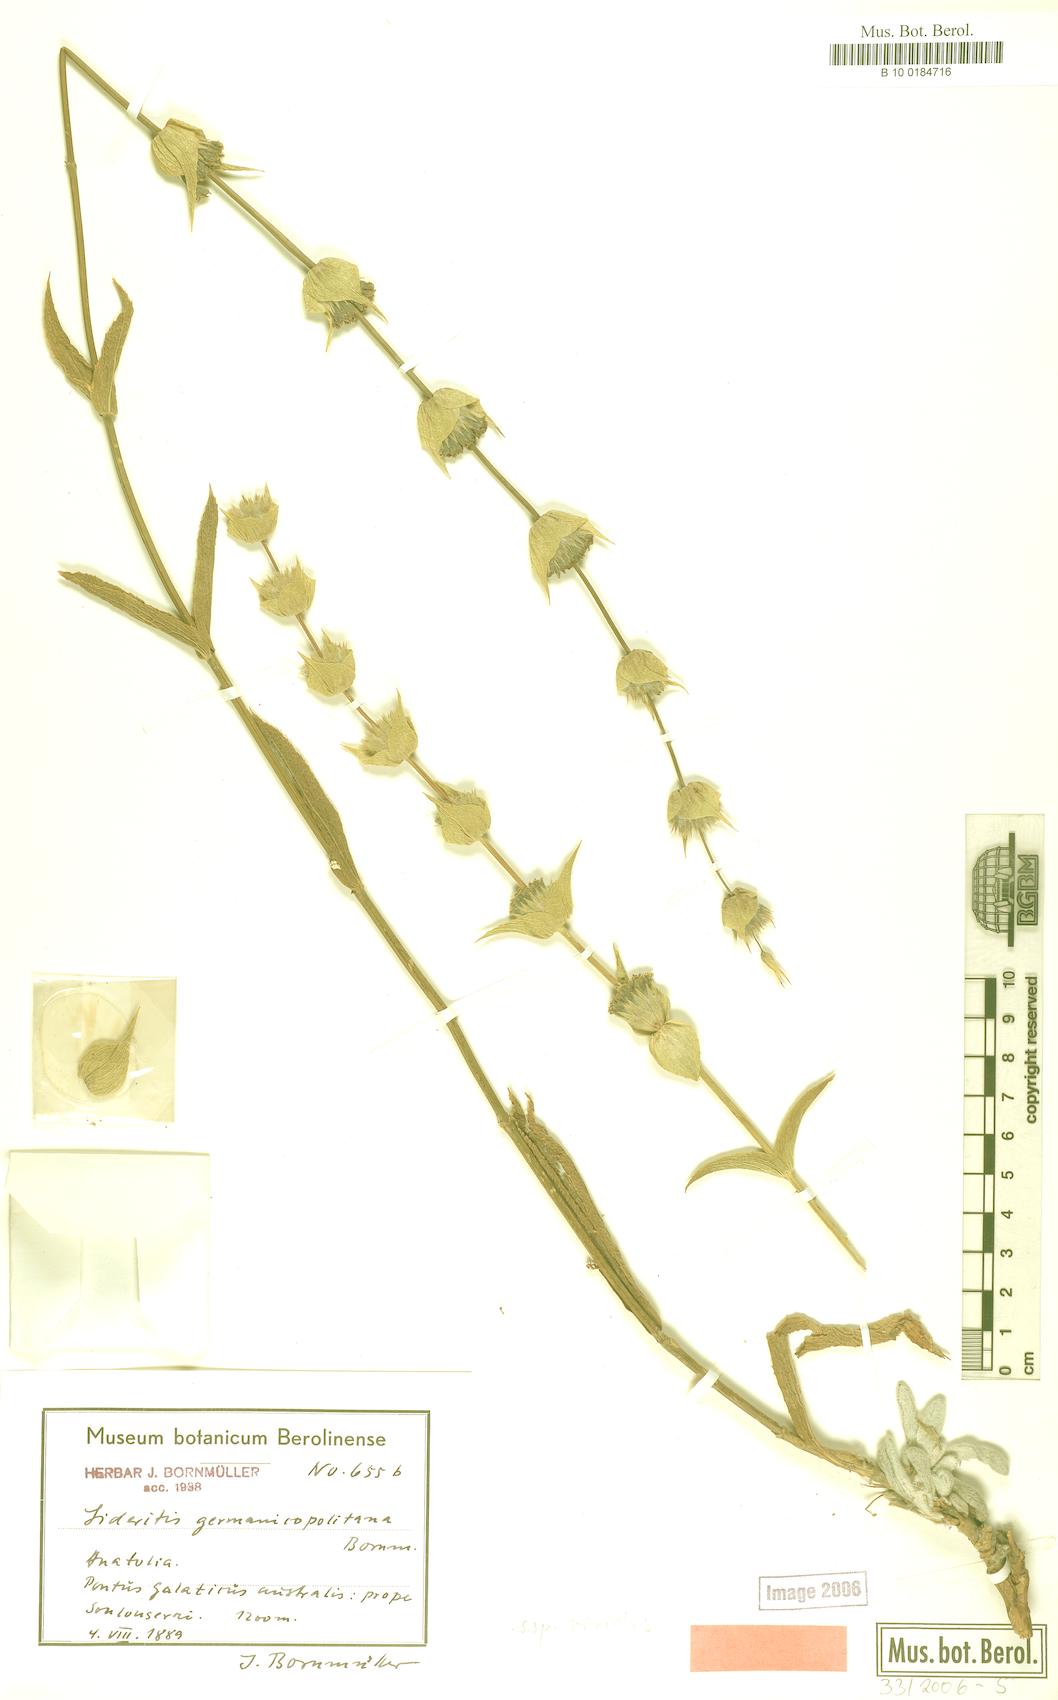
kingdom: Plantae
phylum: Tracheophyta
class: Magnoliopsida
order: Lamiales
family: Lamiaceae
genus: Sideritis
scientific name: Sideritis germanicopolitana
